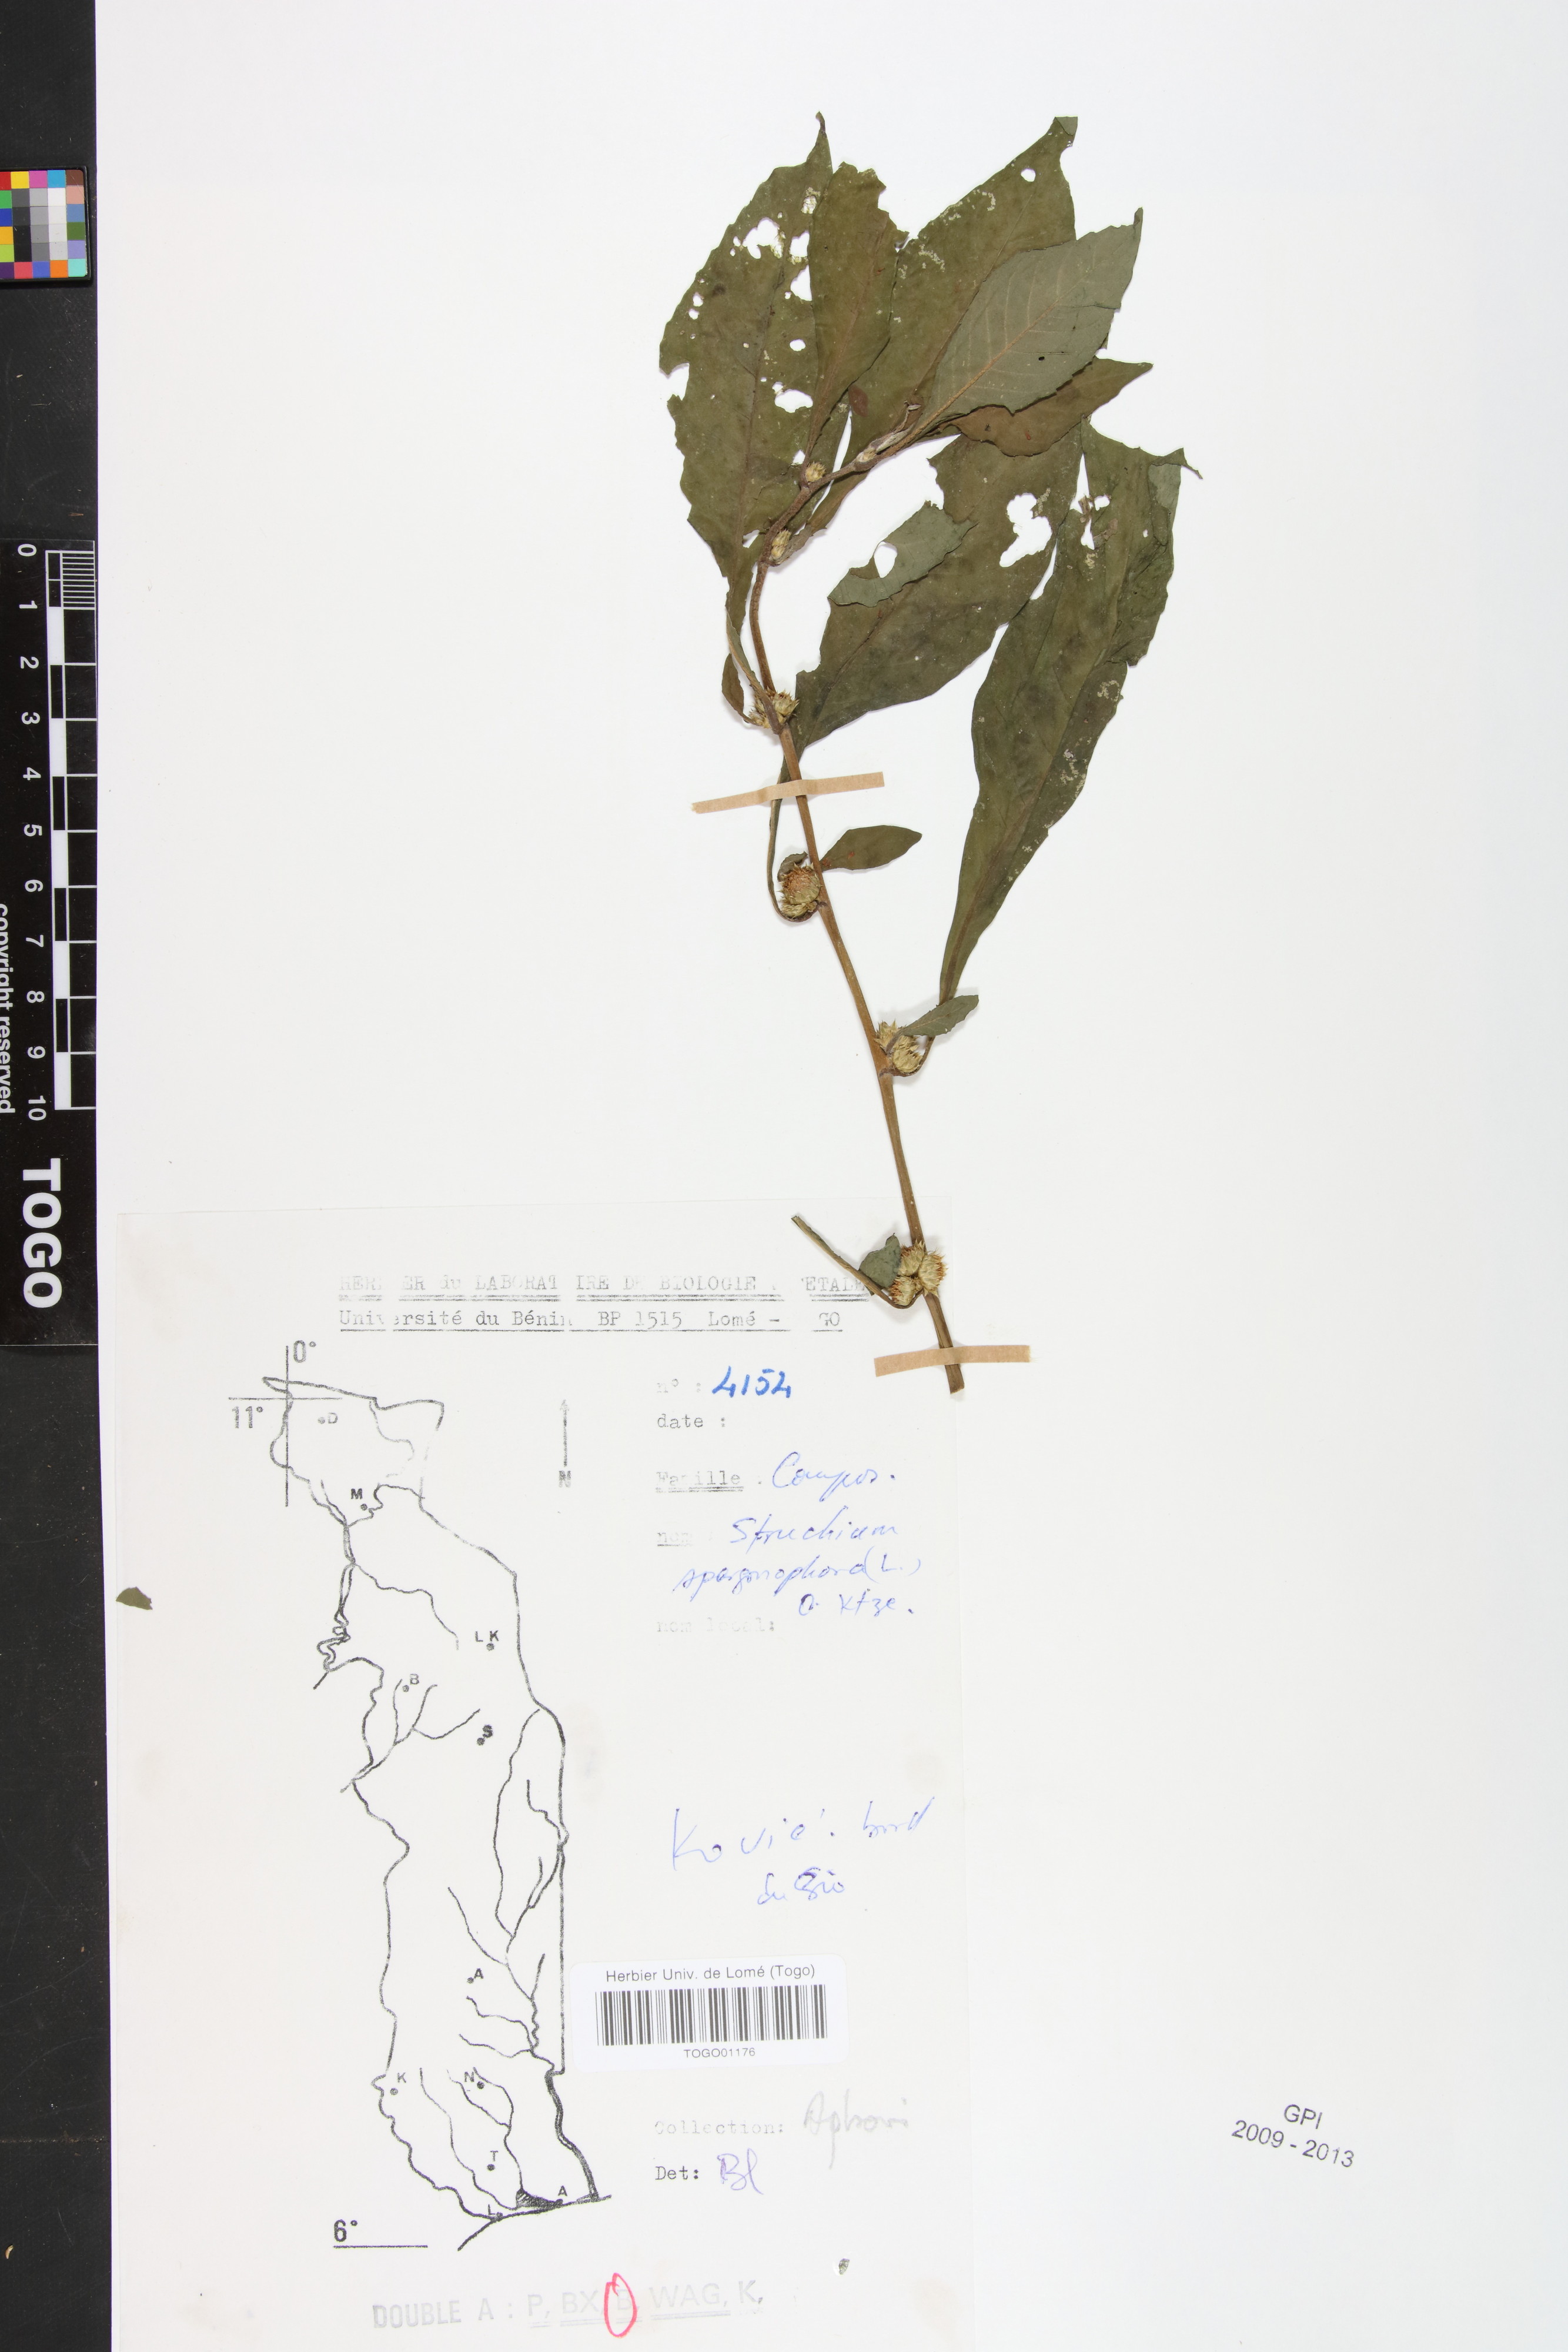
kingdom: Plantae
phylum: Tracheophyta
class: Magnoliopsida
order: Asterales
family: Asteraceae
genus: Struchium
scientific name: Struchium sparganophorum
